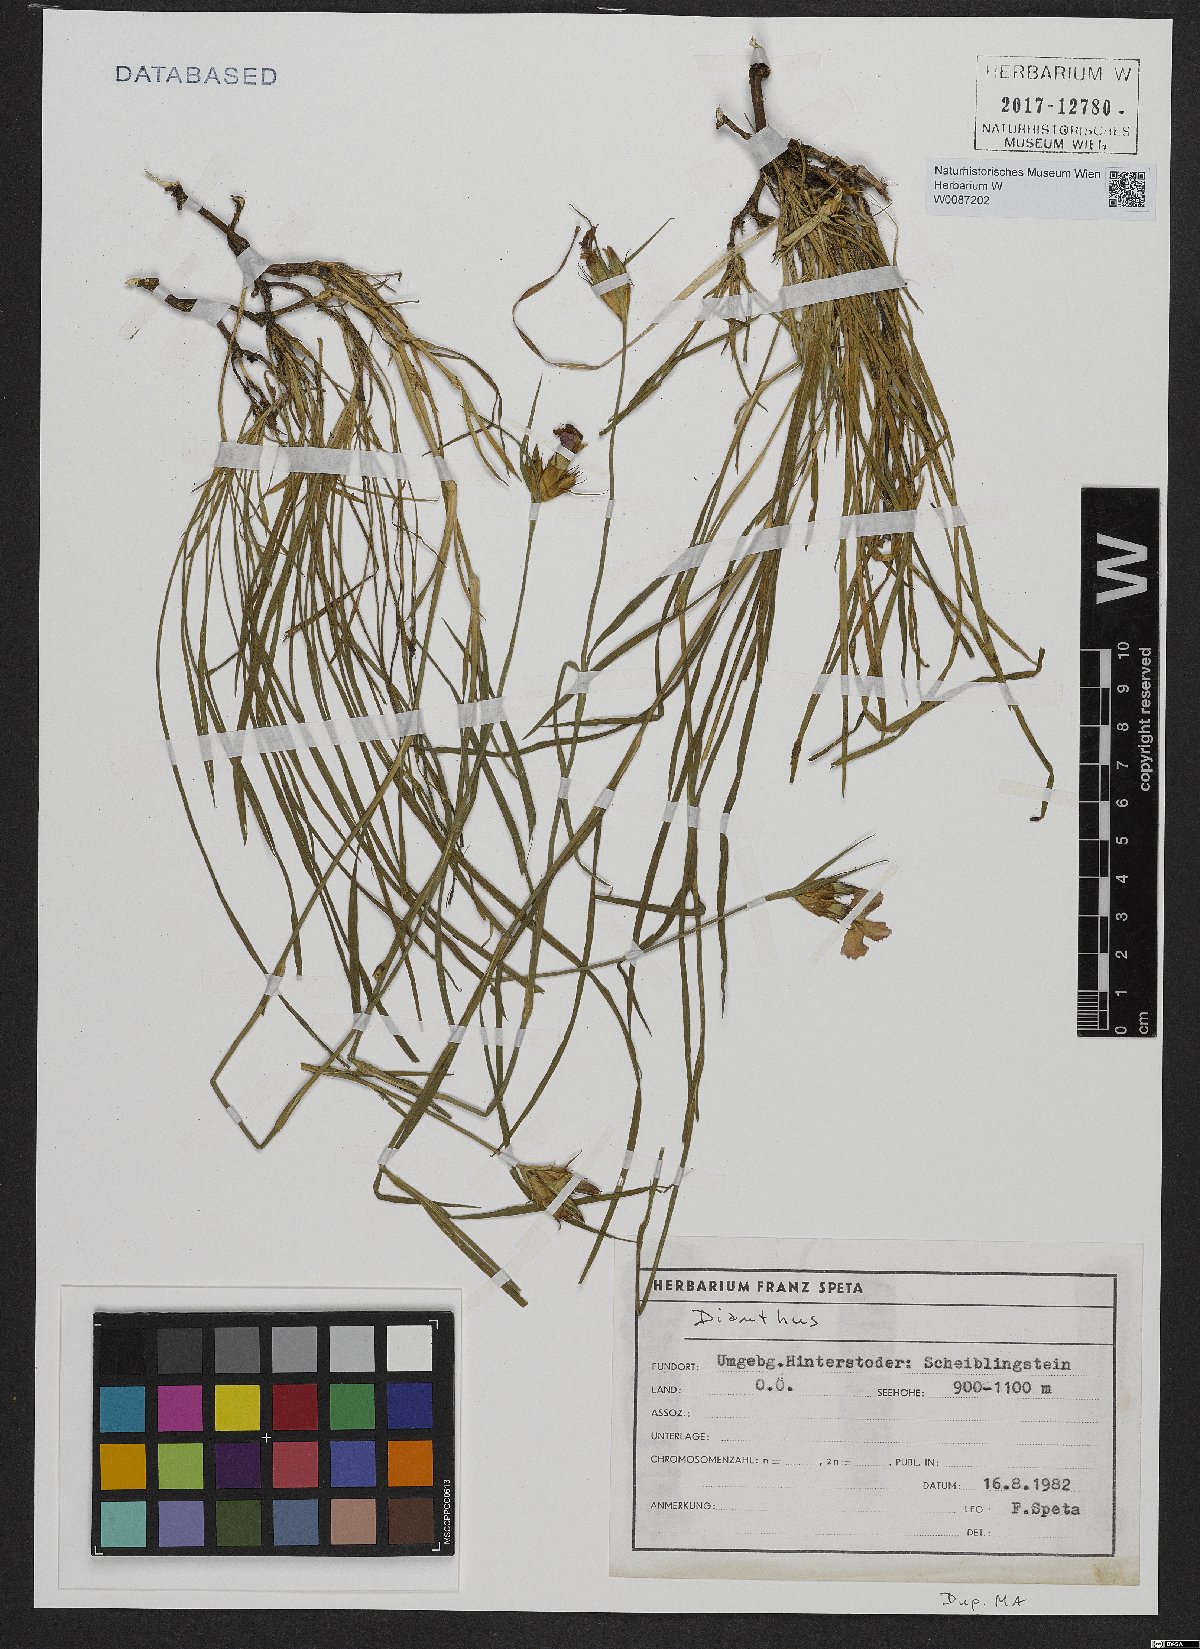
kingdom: Plantae
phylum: Tracheophyta
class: Magnoliopsida
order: Caryophyllales
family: Caryophyllaceae
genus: Dianthus
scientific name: Dianthus carthusianorum
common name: Carthusian pink
